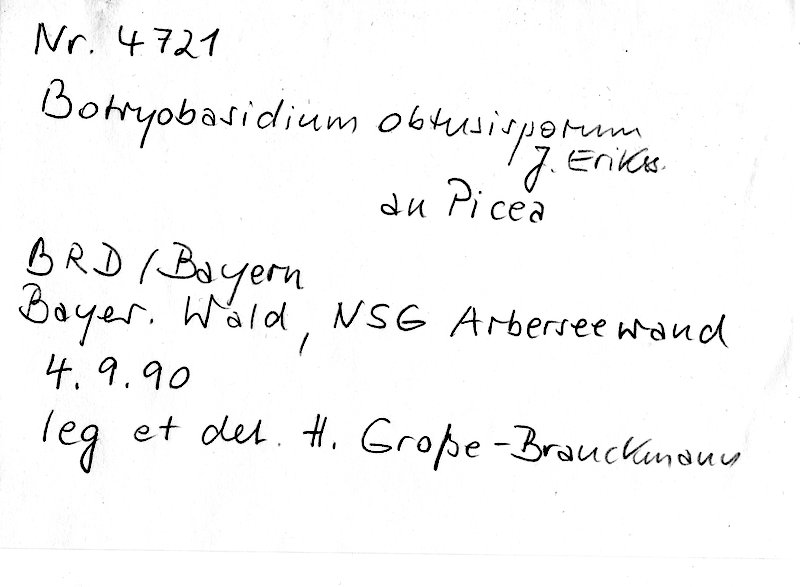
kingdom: Plantae
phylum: Tracheophyta
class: Pinopsida
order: Pinales
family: Pinaceae
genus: Picea
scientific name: Picea
